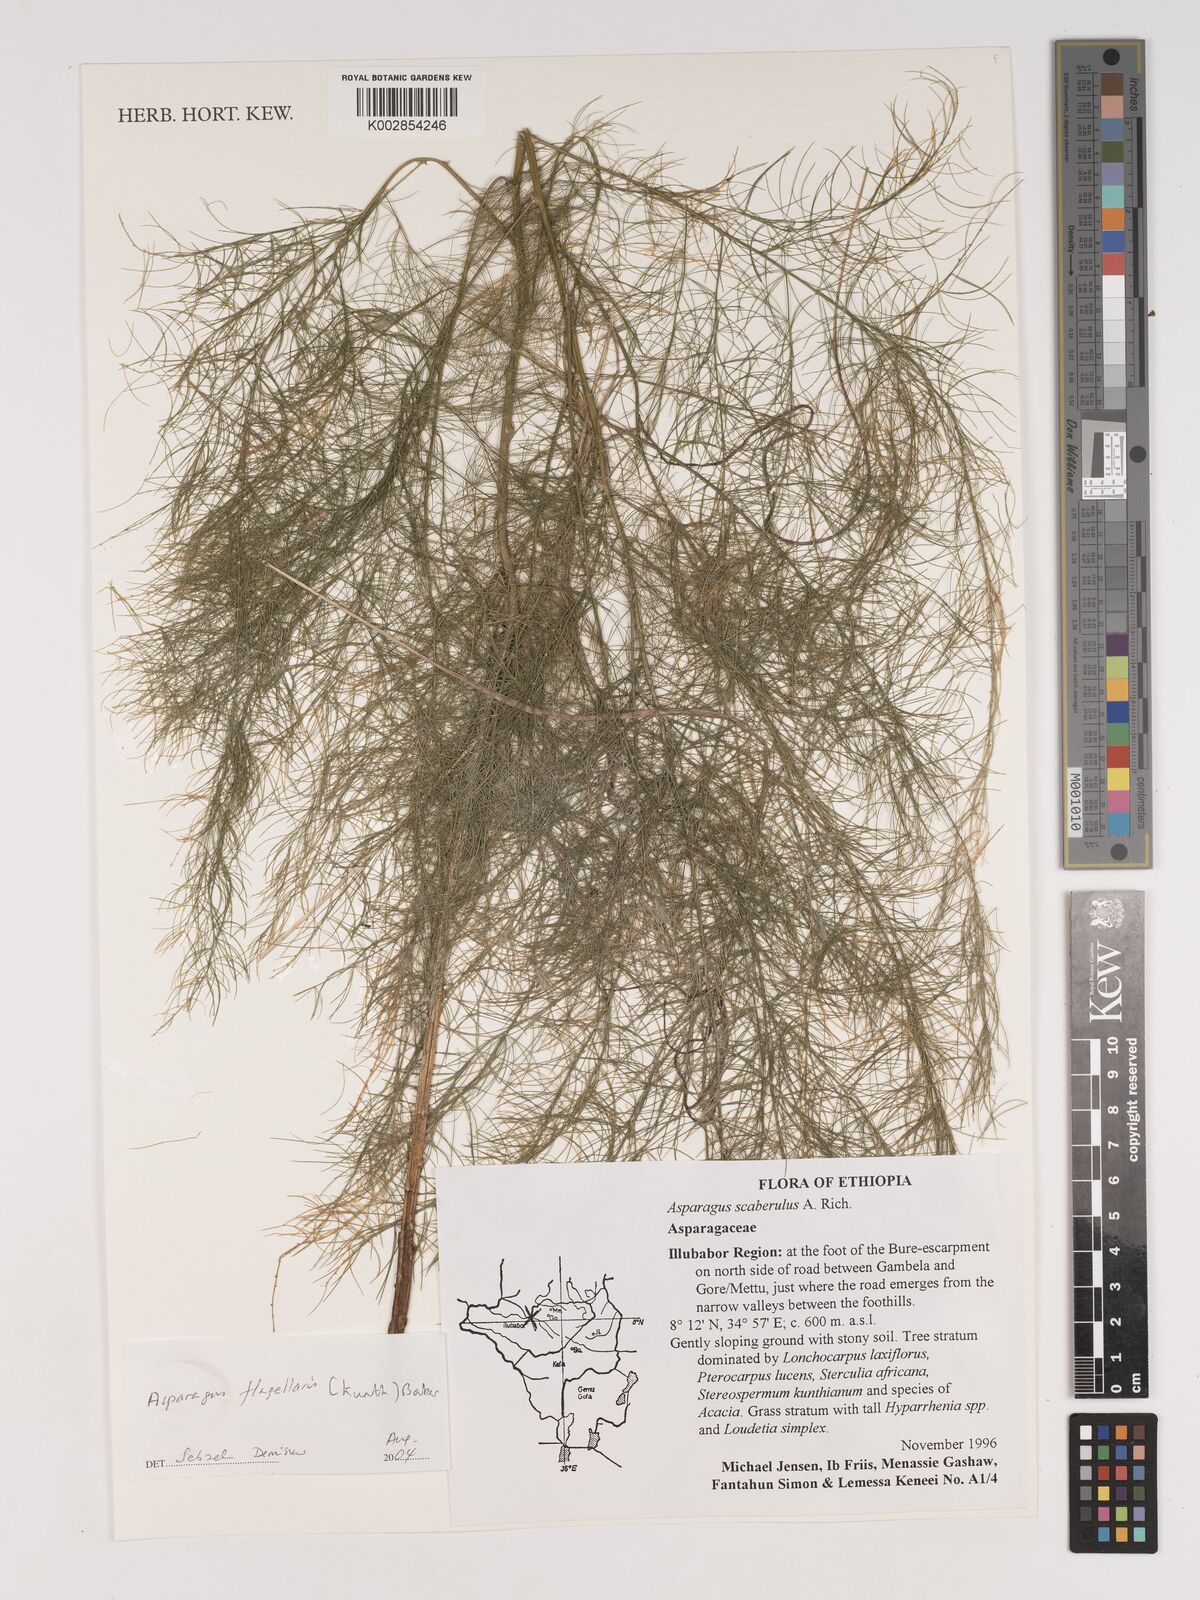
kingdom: Plantae
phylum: Tracheophyta
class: Liliopsida
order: Asparagales
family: Asparagaceae
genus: Asparagus
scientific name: Asparagus flagellaris
